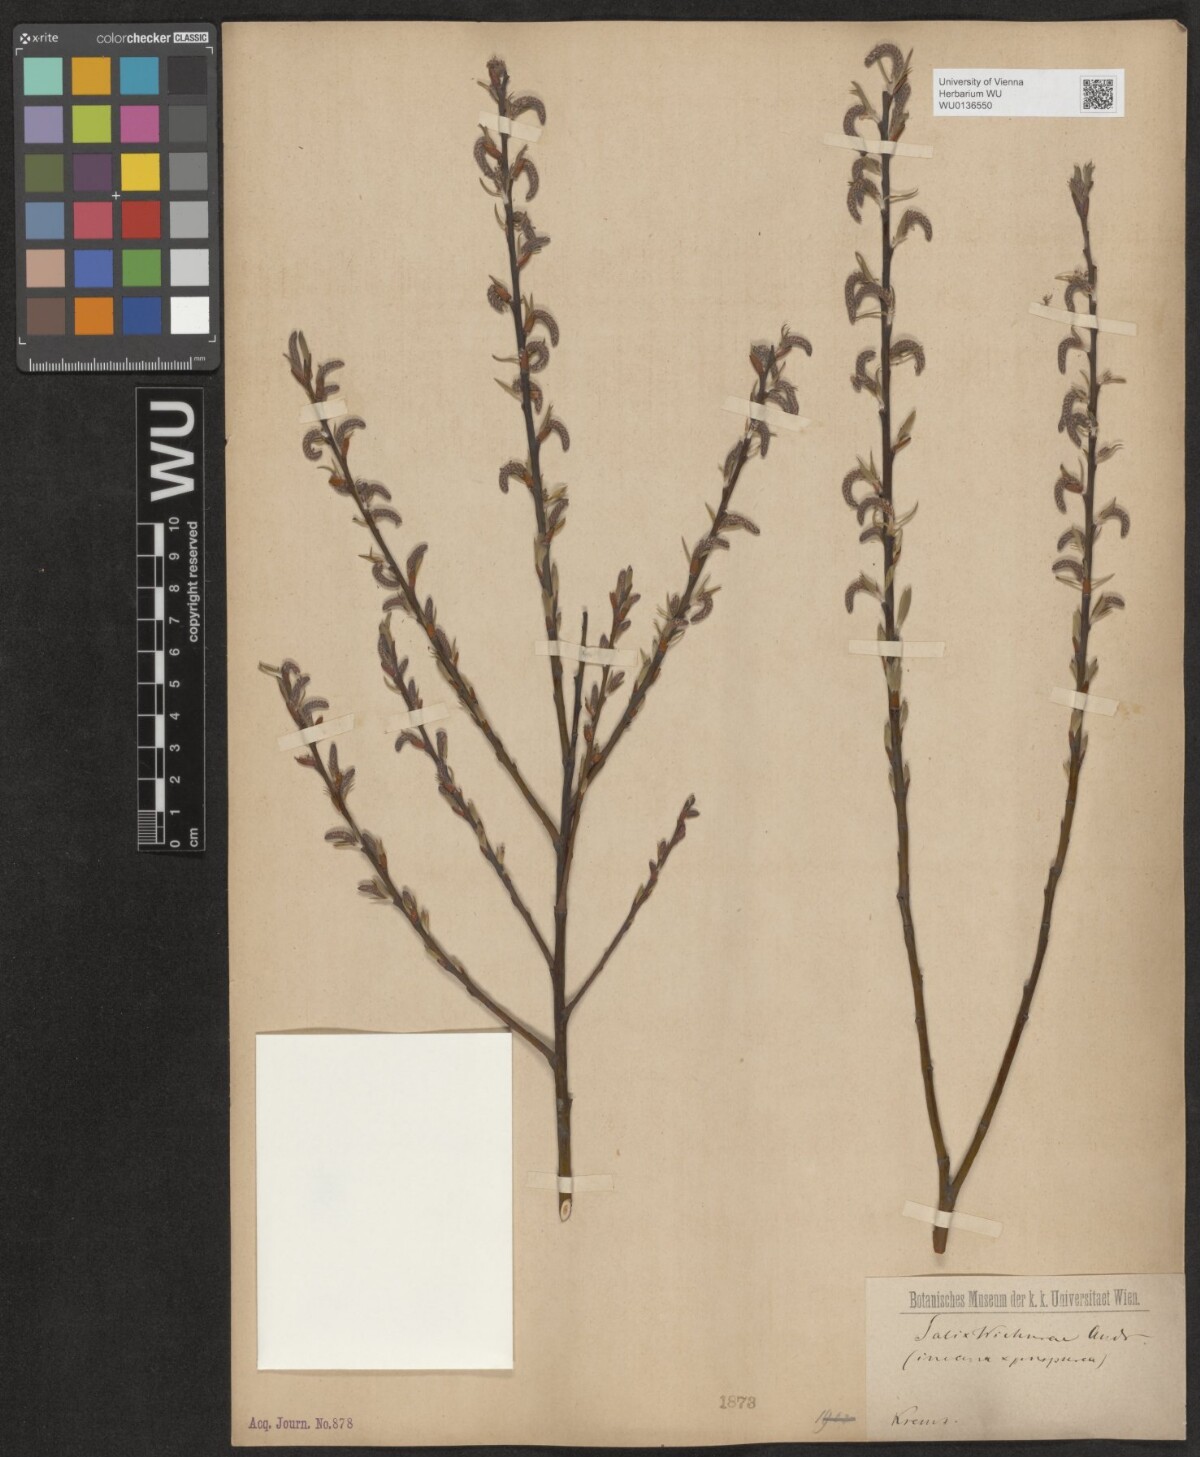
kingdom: Plantae
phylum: Tracheophyta
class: Magnoliopsida
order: Malpighiales
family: Salicaceae
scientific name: Salicaceae
